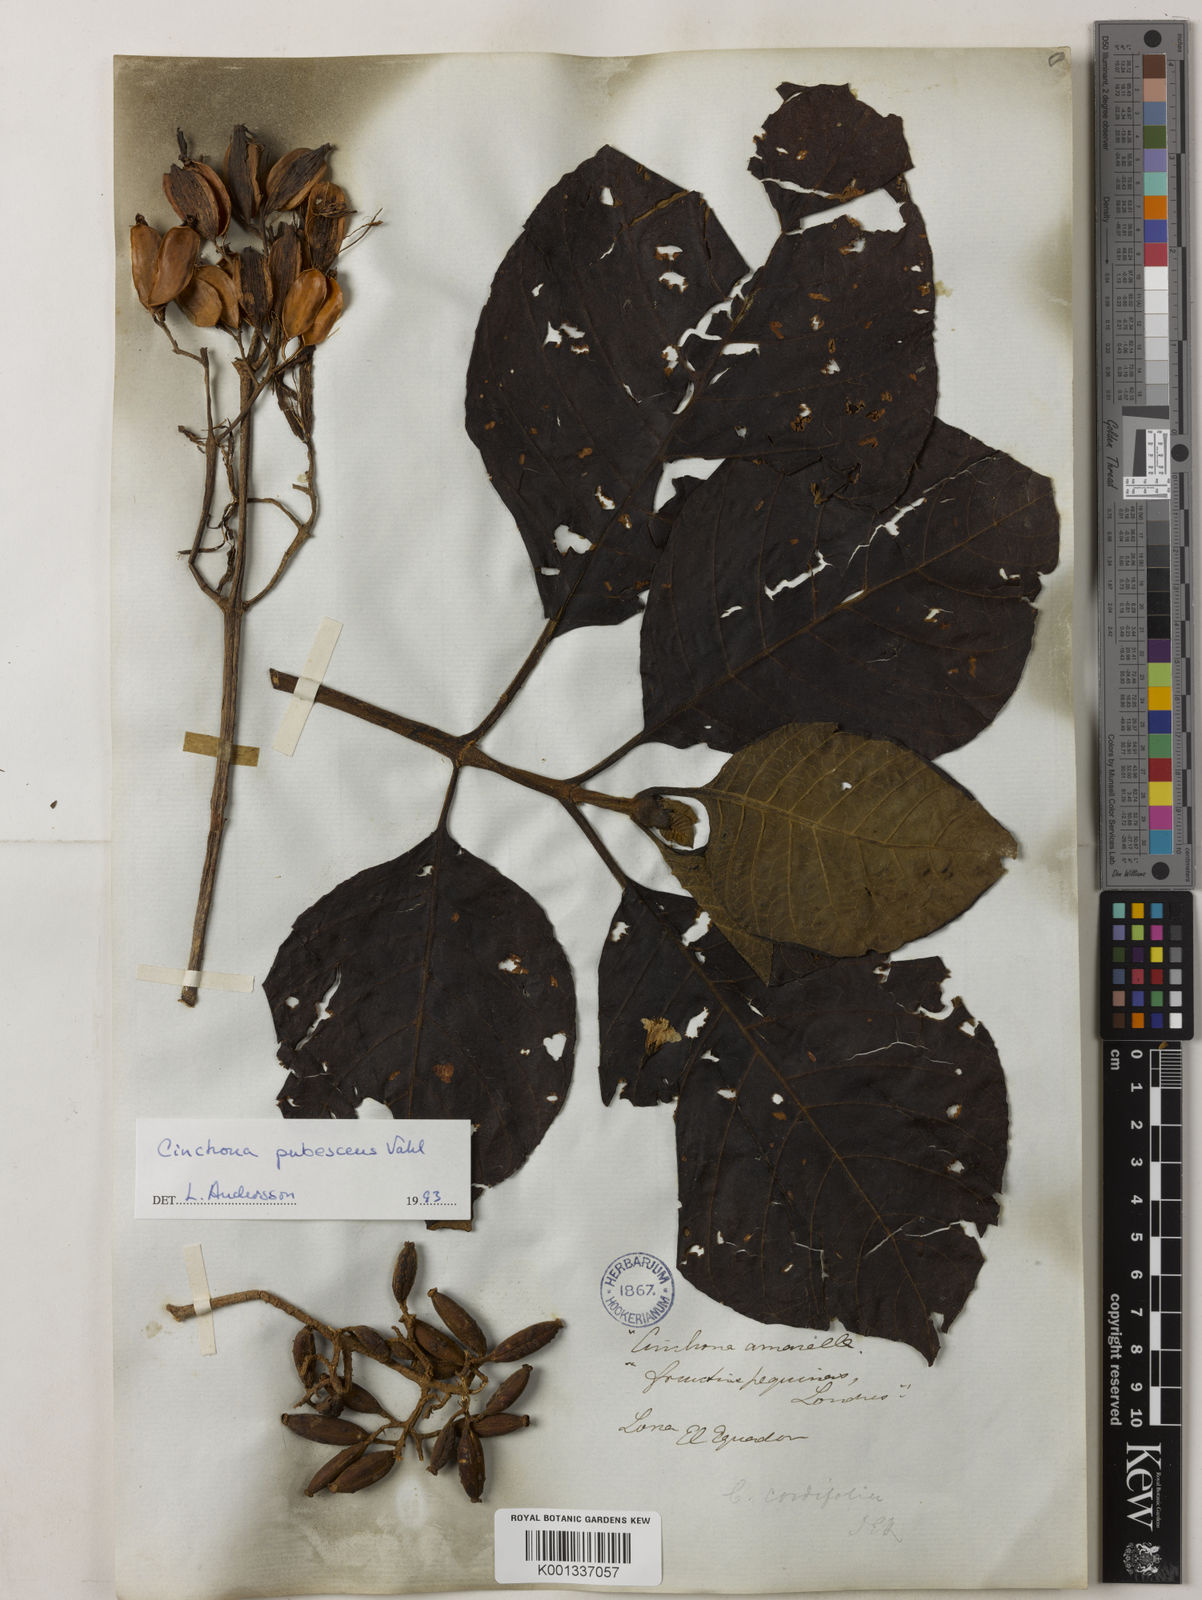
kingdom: Plantae
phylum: Tracheophyta
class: Magnoliopsida
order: Gentianales
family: Rubiaceae
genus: Cinchona
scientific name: Cinchona pubescens
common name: Quinine
